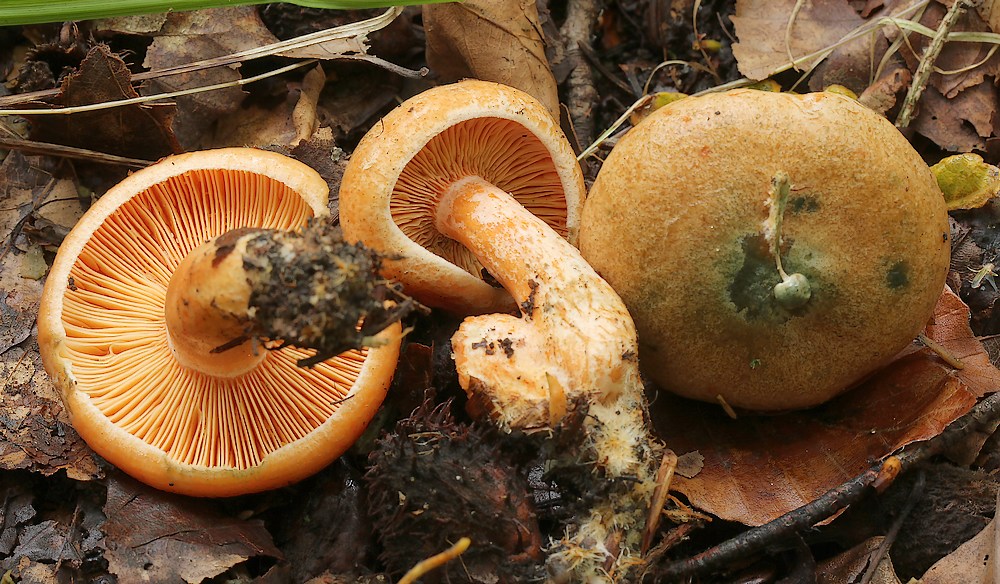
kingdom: Fungi
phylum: Basidiomycota
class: Agaricomycetes
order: Russulales
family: Russulaceae
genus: Lactarius
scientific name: Lactarius deterrimus
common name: gran-mælkehat
